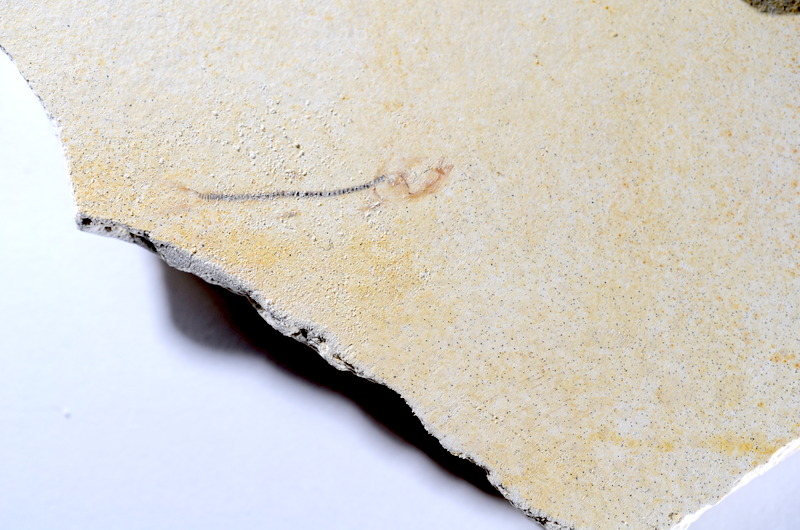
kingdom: Animalia
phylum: Chordata
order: Salmoniformes
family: Orthogonikleithridae
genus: Orthogonikleithrus
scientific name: Orthogonikleithrus hoelli
